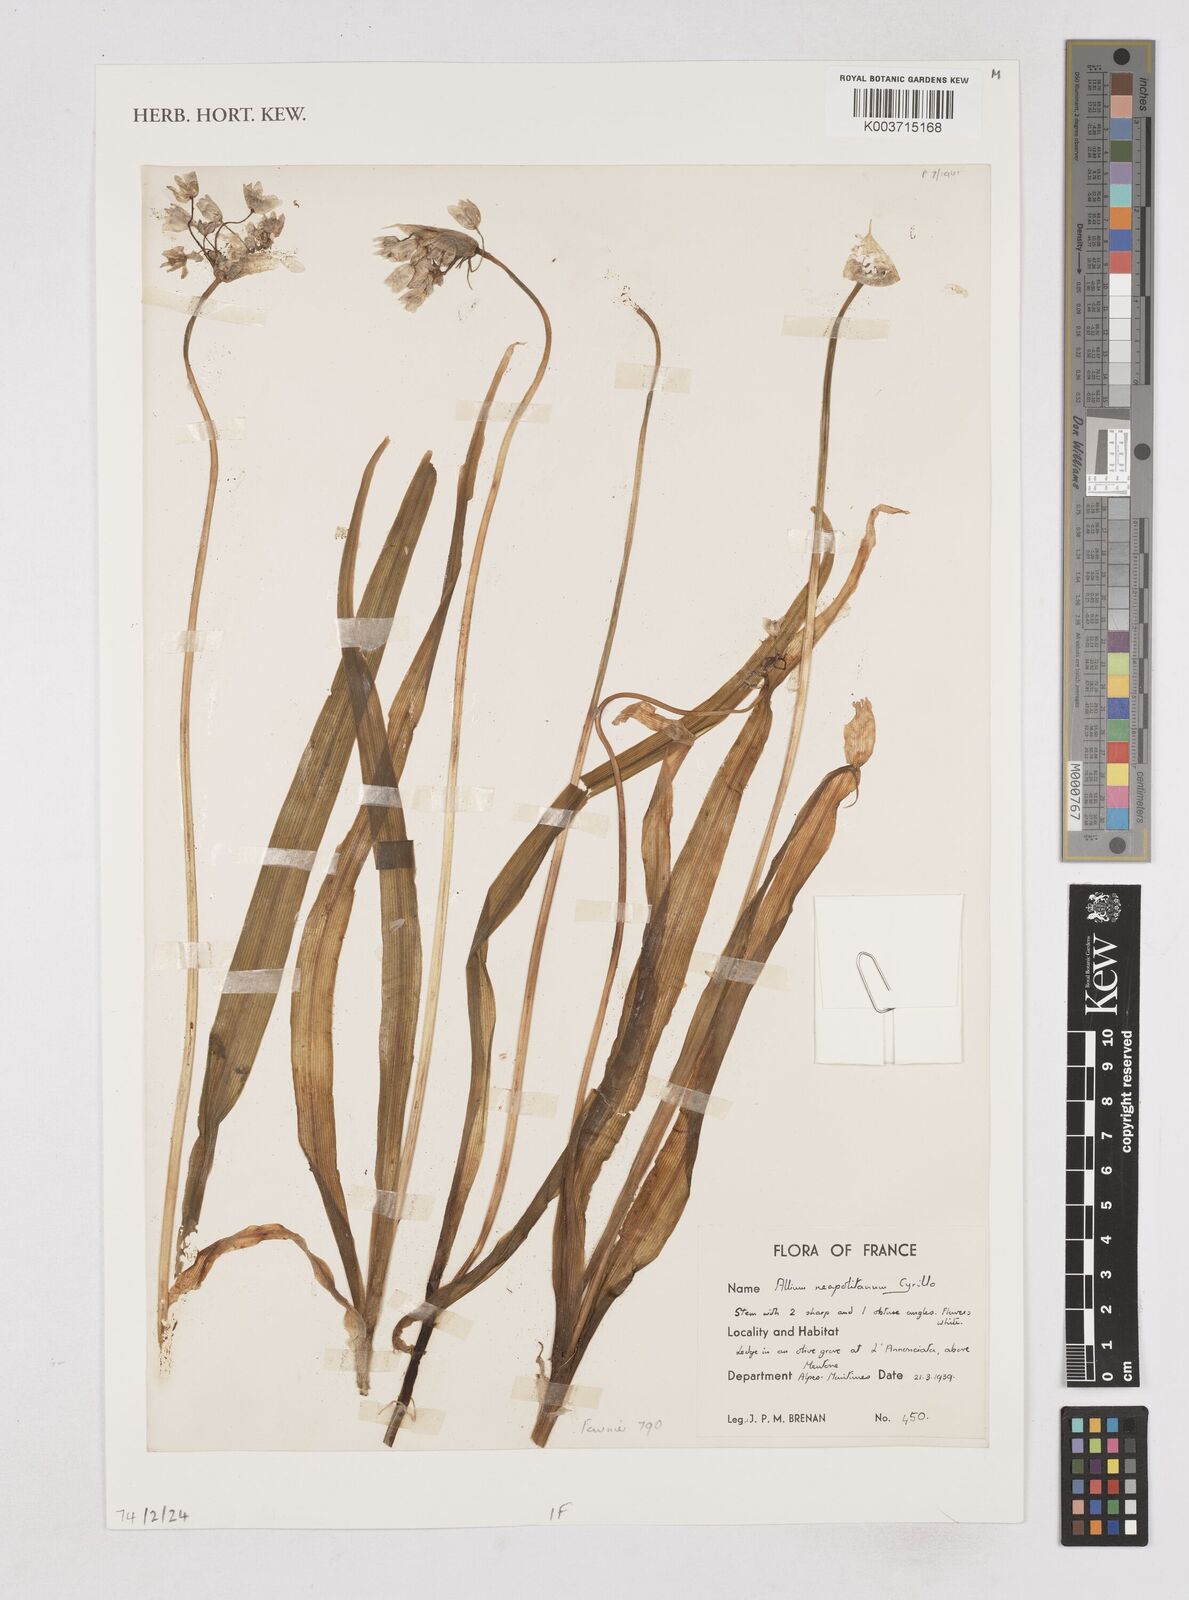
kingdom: Plantae
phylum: Tracheophyta
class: Liliopsida
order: Asparagales
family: Amaryllidaceae
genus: Allium
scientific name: Allium neapolitanum
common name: Neapolitan garlic
